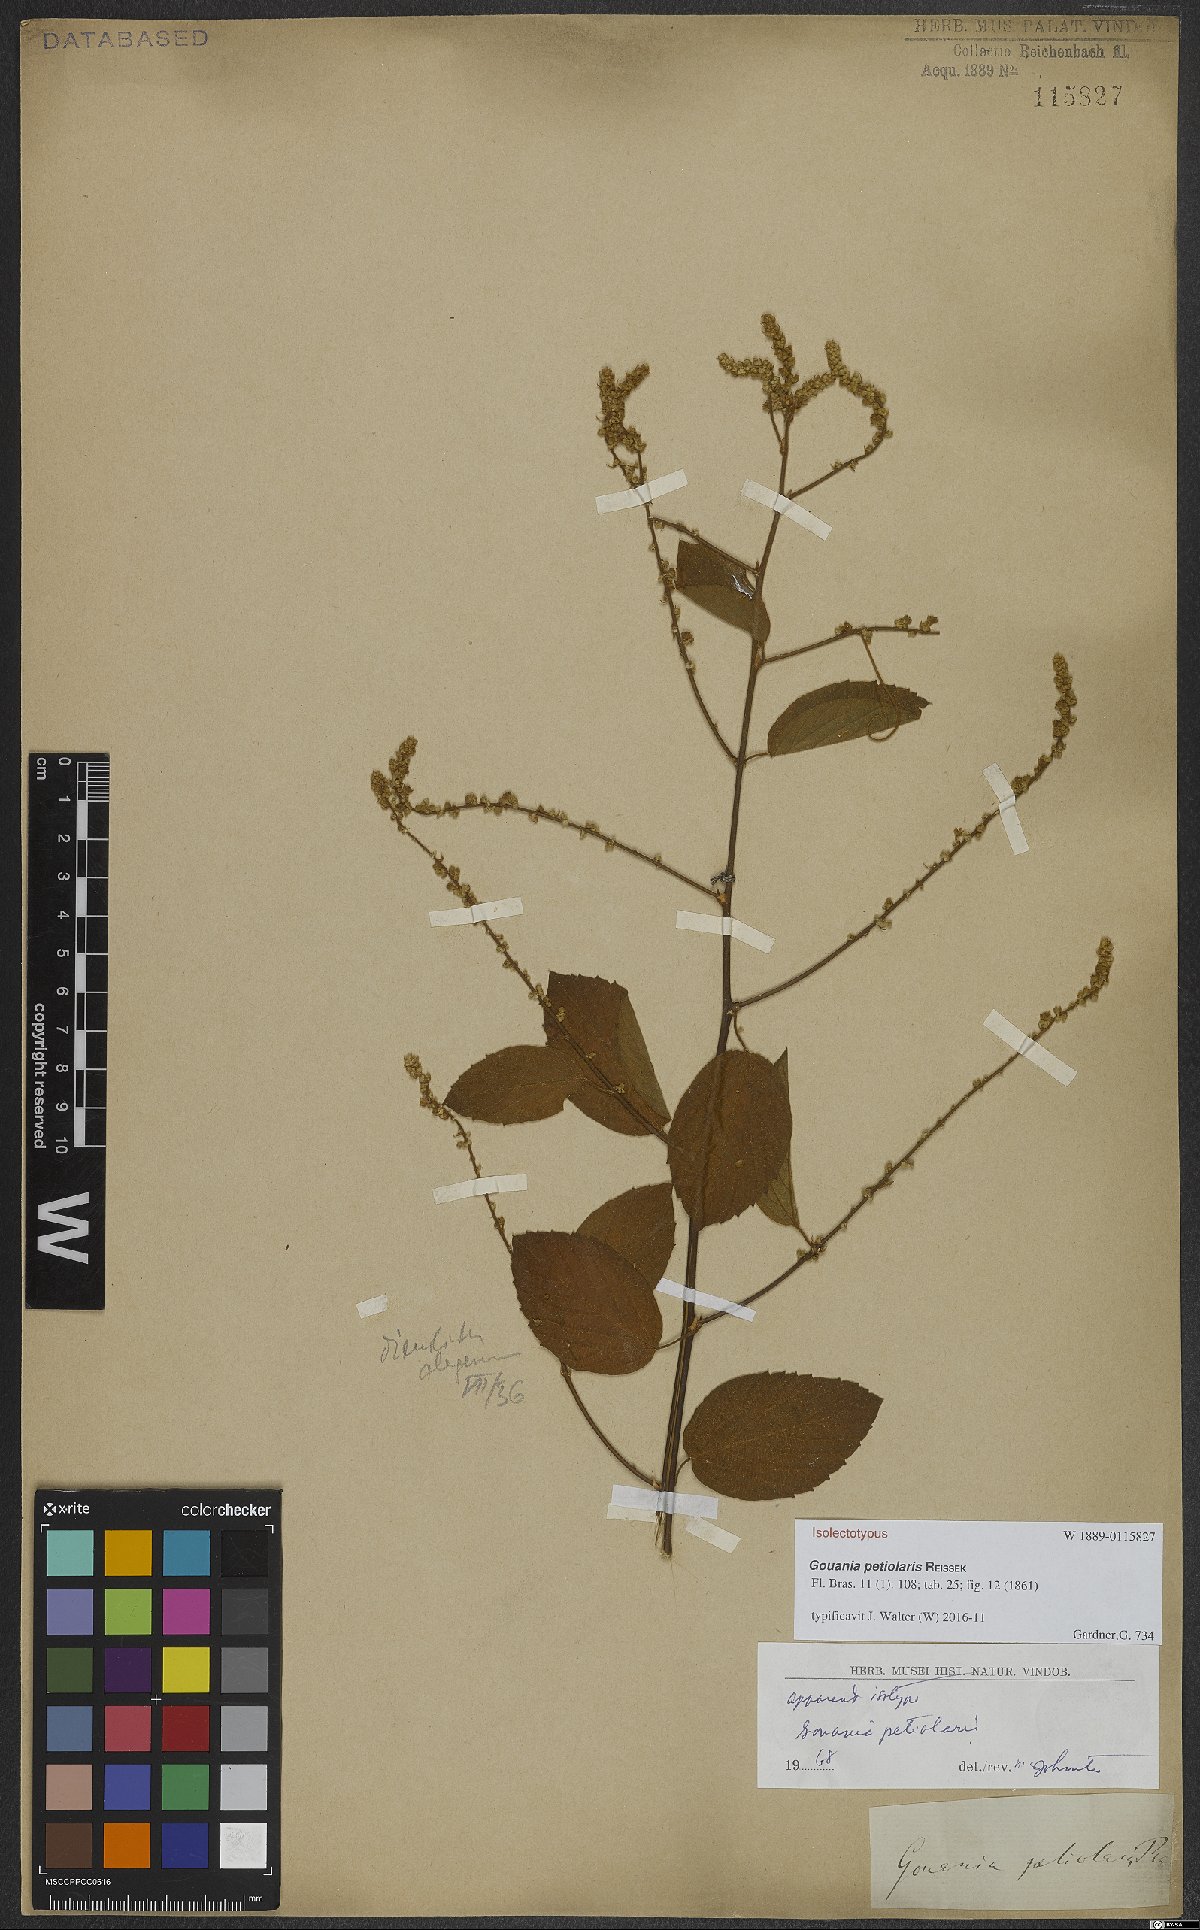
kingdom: Plantae
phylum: Tracheophyta
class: Magnoliopsida
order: Rosales
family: Rhamnaceae
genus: Gouania
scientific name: Gouania corylifolia
